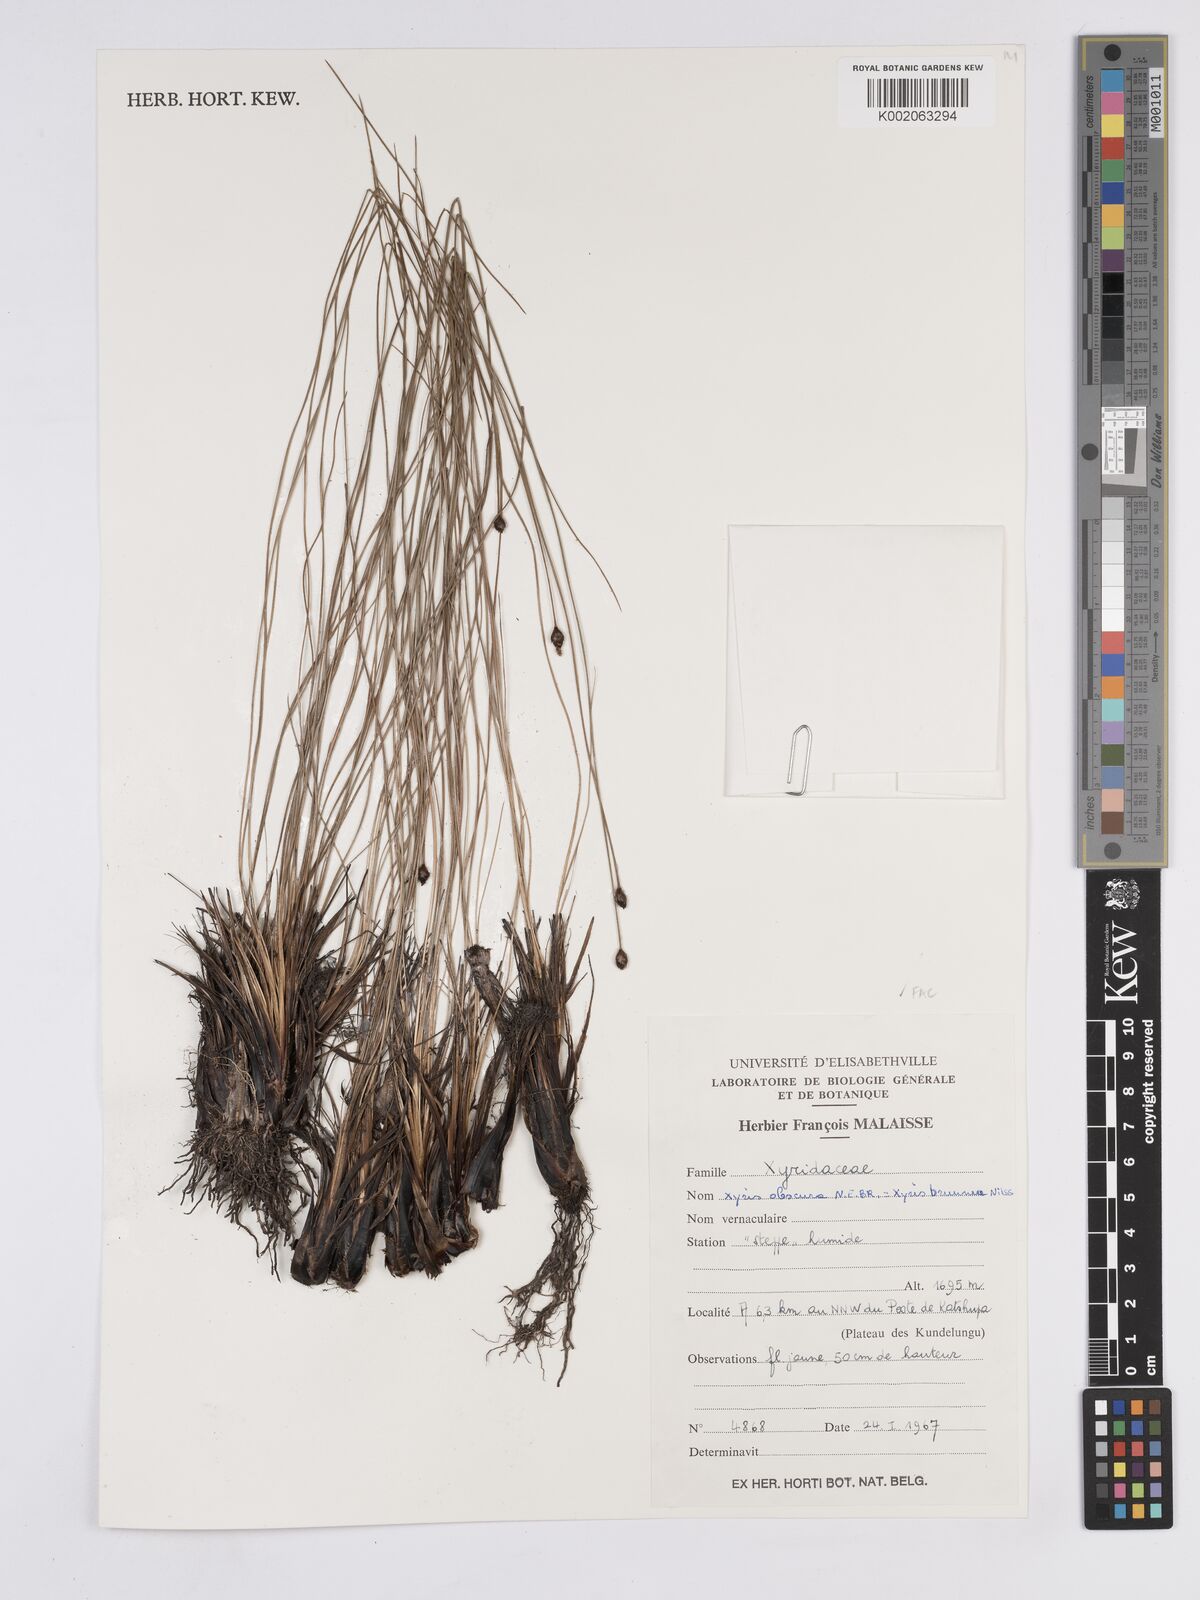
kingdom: Plantae
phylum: Tracheophyta
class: Liliopsida
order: Poales
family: Xyridaceae
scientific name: Xyridaceae
